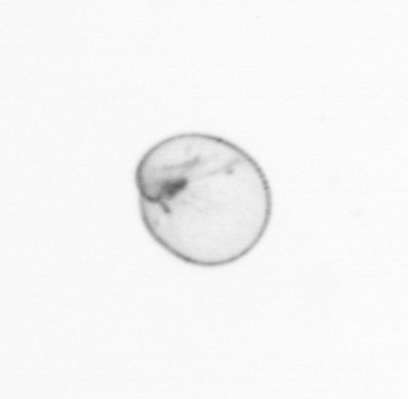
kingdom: Chromista
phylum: Myzozoa
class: Dinophyceae
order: Noctilucales
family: Noctilucaceae
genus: Noctiluca
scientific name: Noctiluca scintillans
